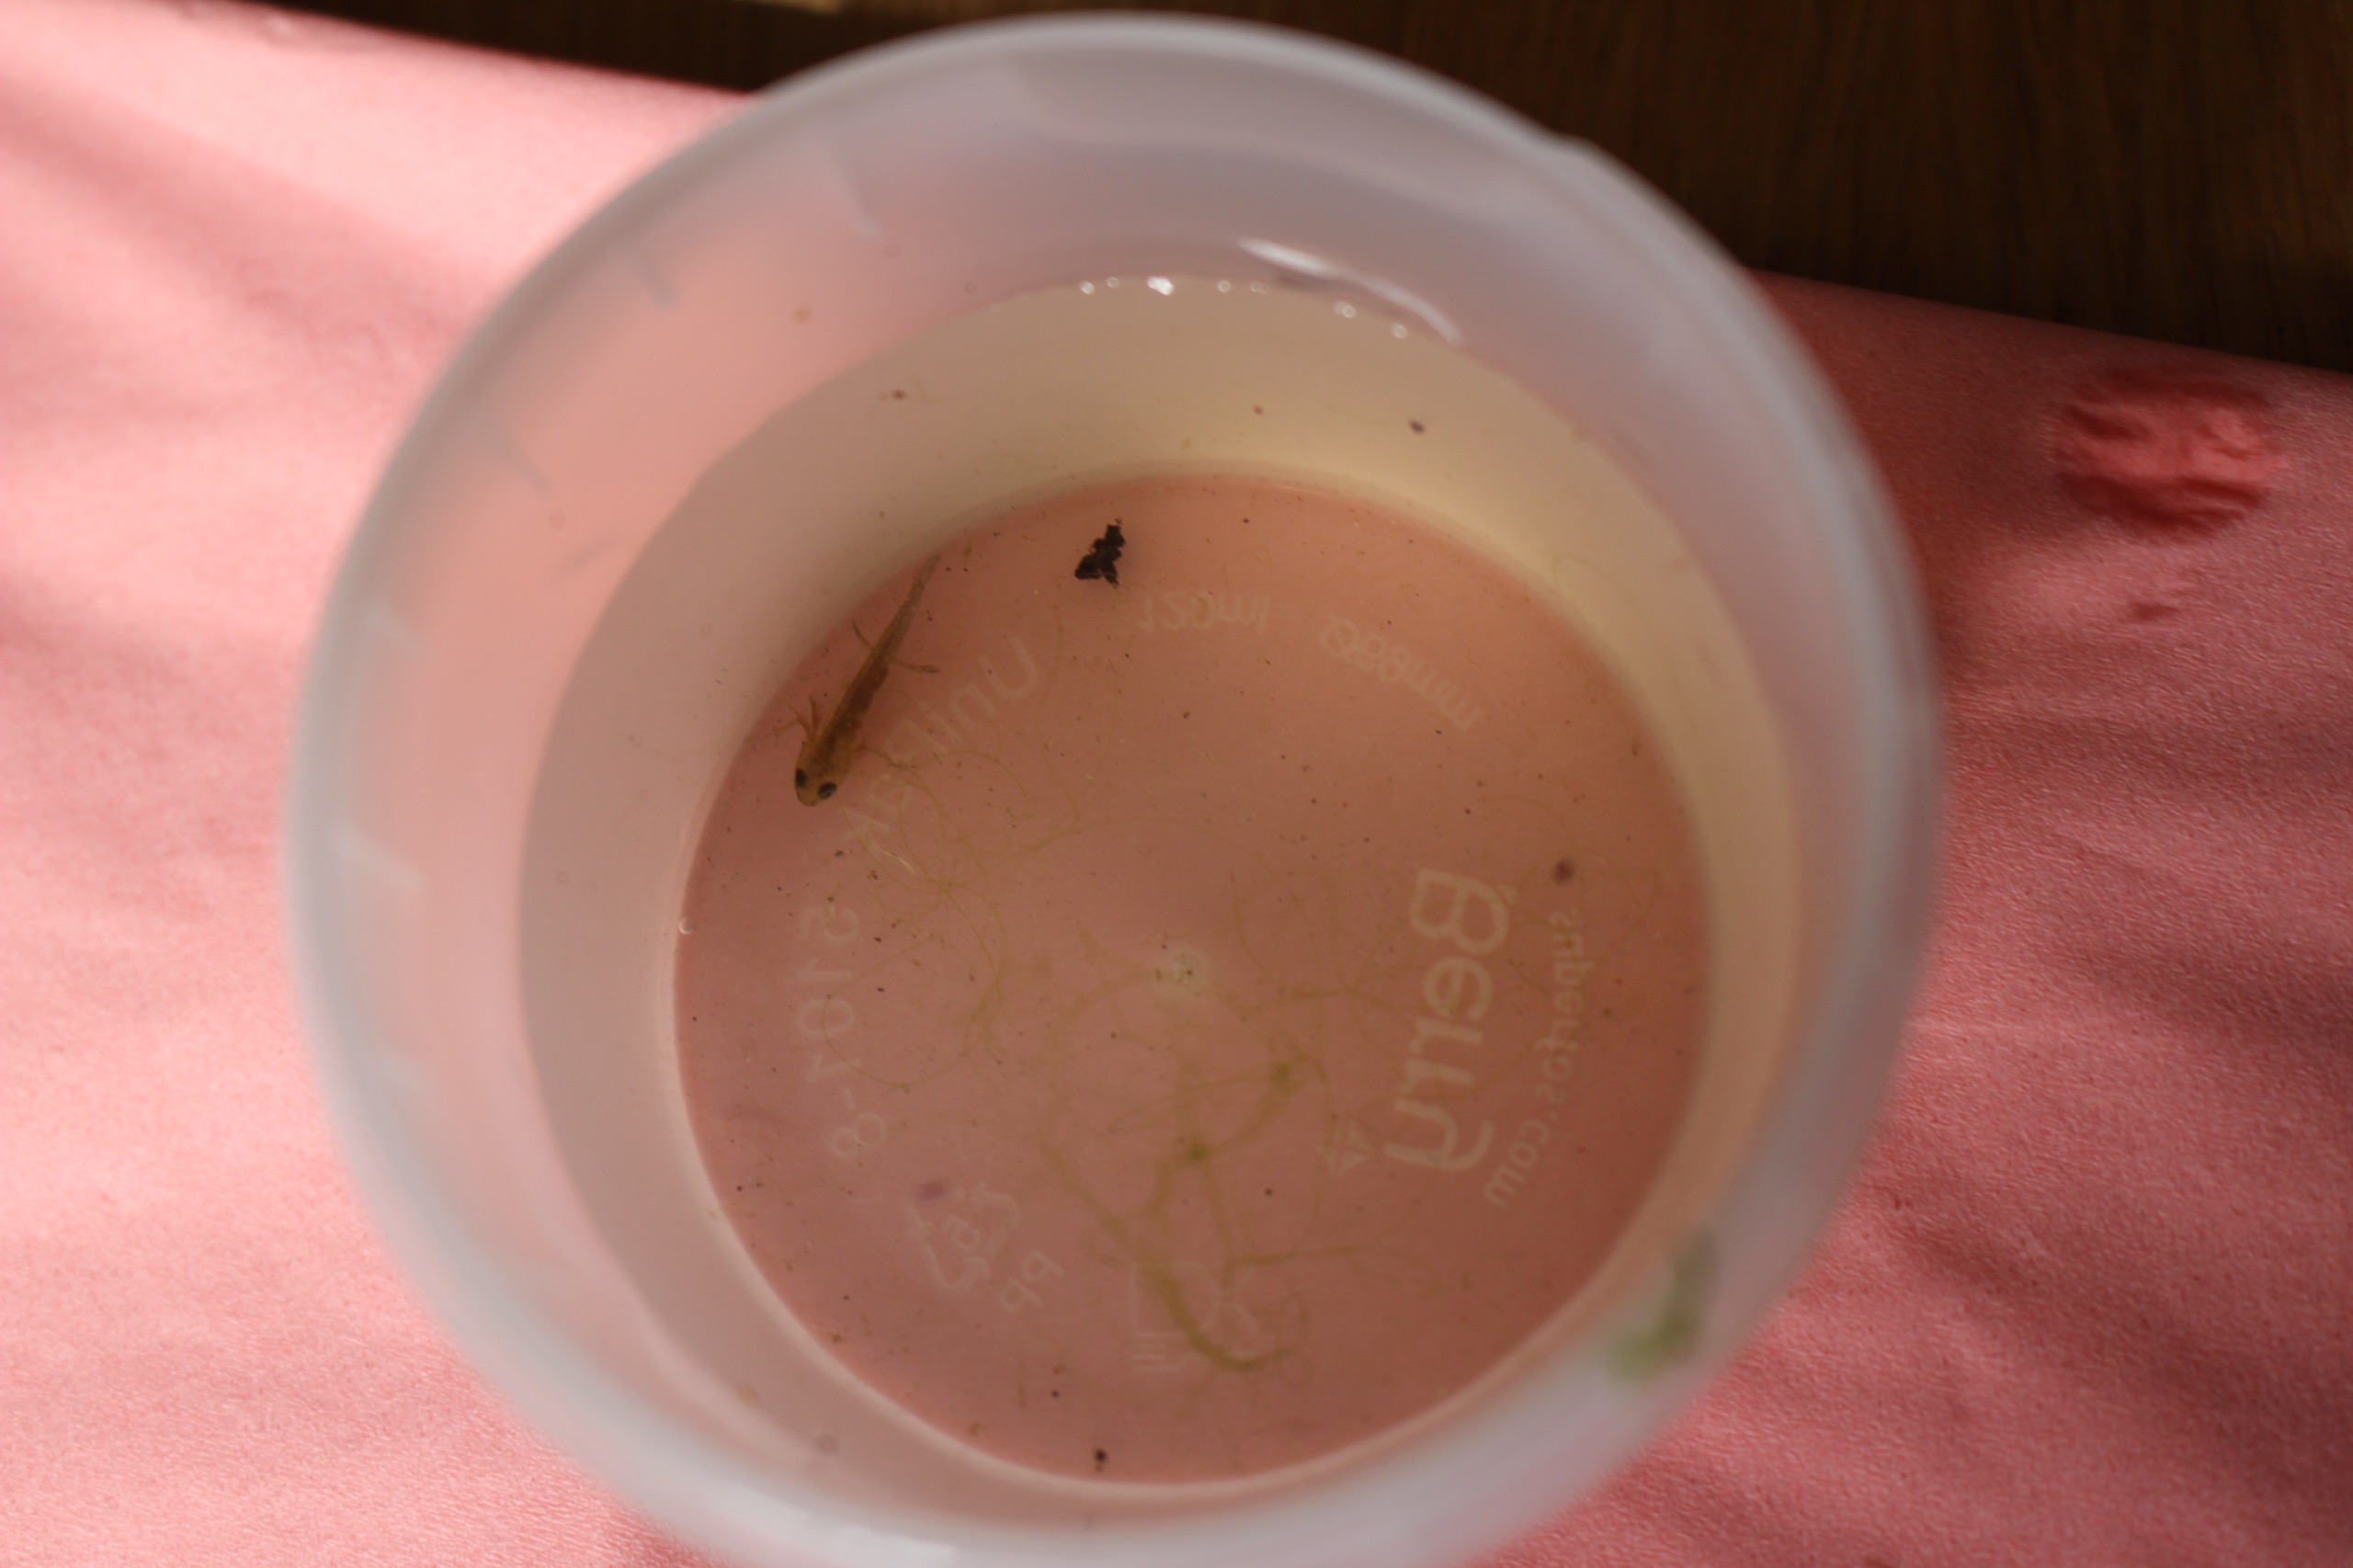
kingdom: Animalia
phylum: Chordata
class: Amphibia
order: Caudata
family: Salamandridae
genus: Lissotriton
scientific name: Lissotriton vulgaris
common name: Lille vandsalamander
